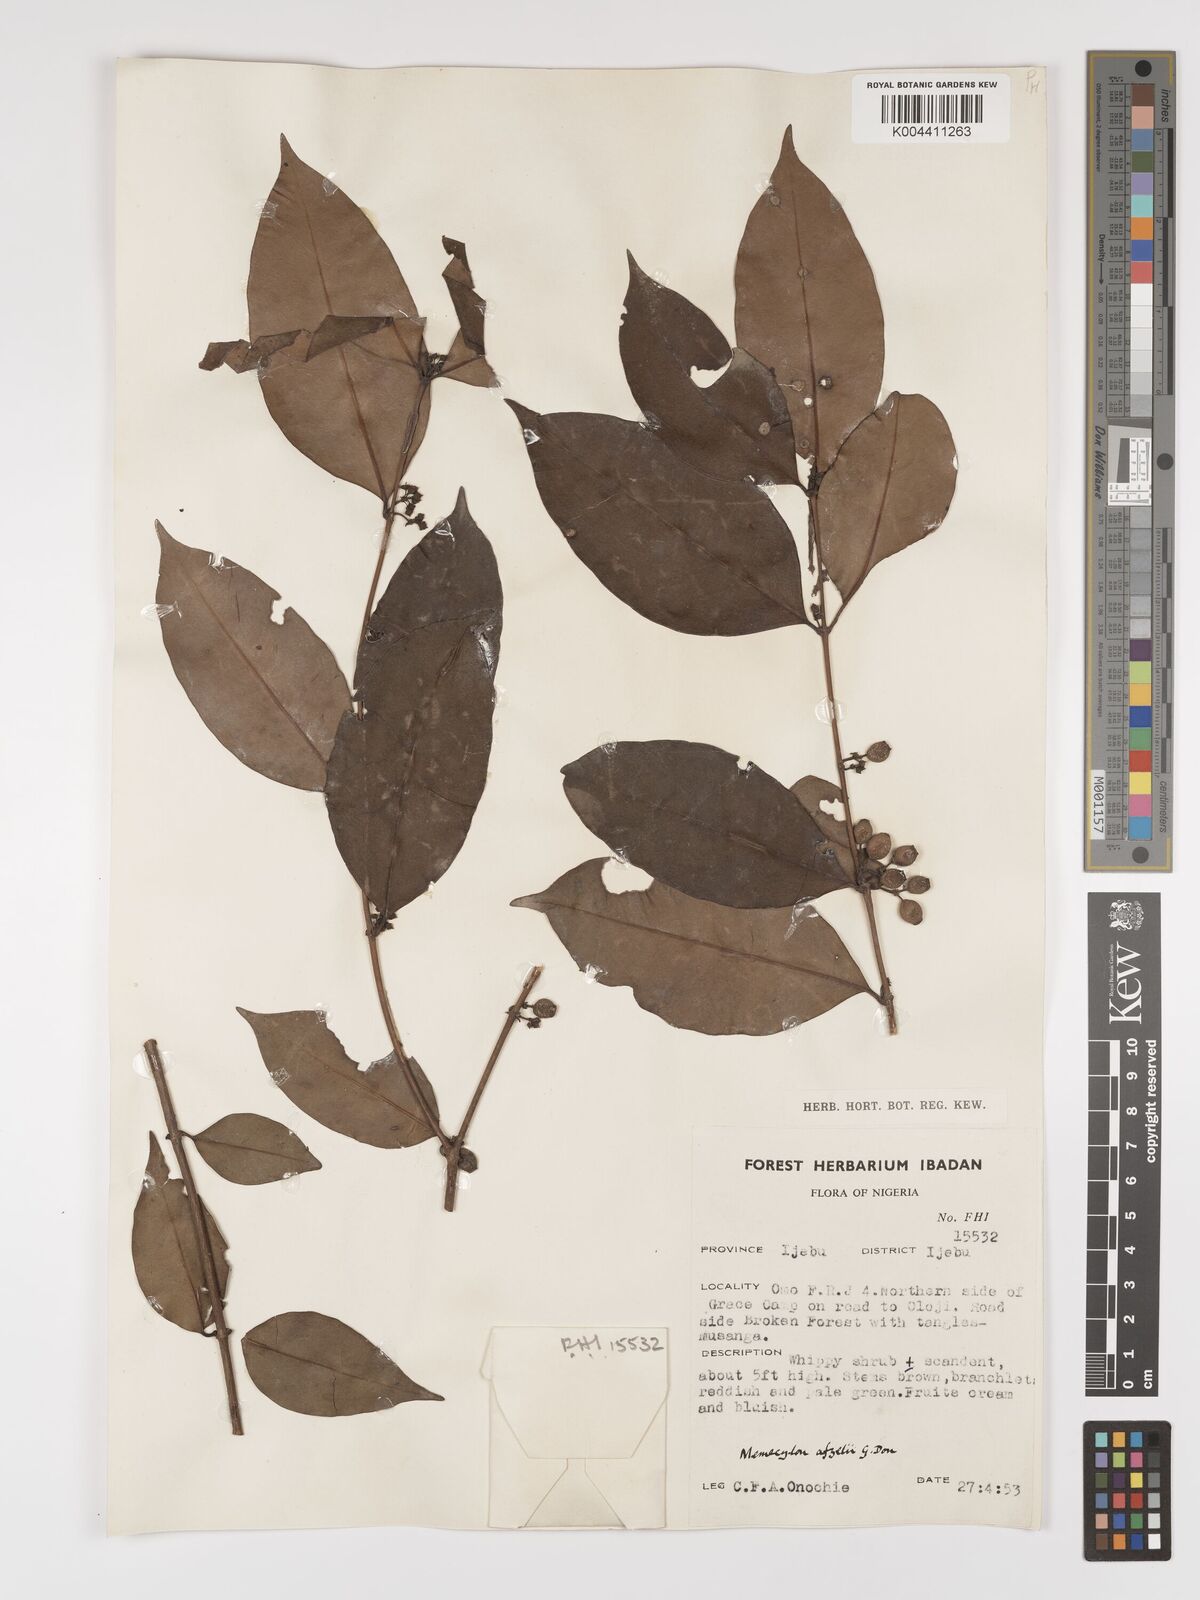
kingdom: Plantae
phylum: Tracheophyta
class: Magnoliopsida
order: Myrtales
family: Melastomataceae
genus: Memecylon
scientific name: Memecylon afzelii
